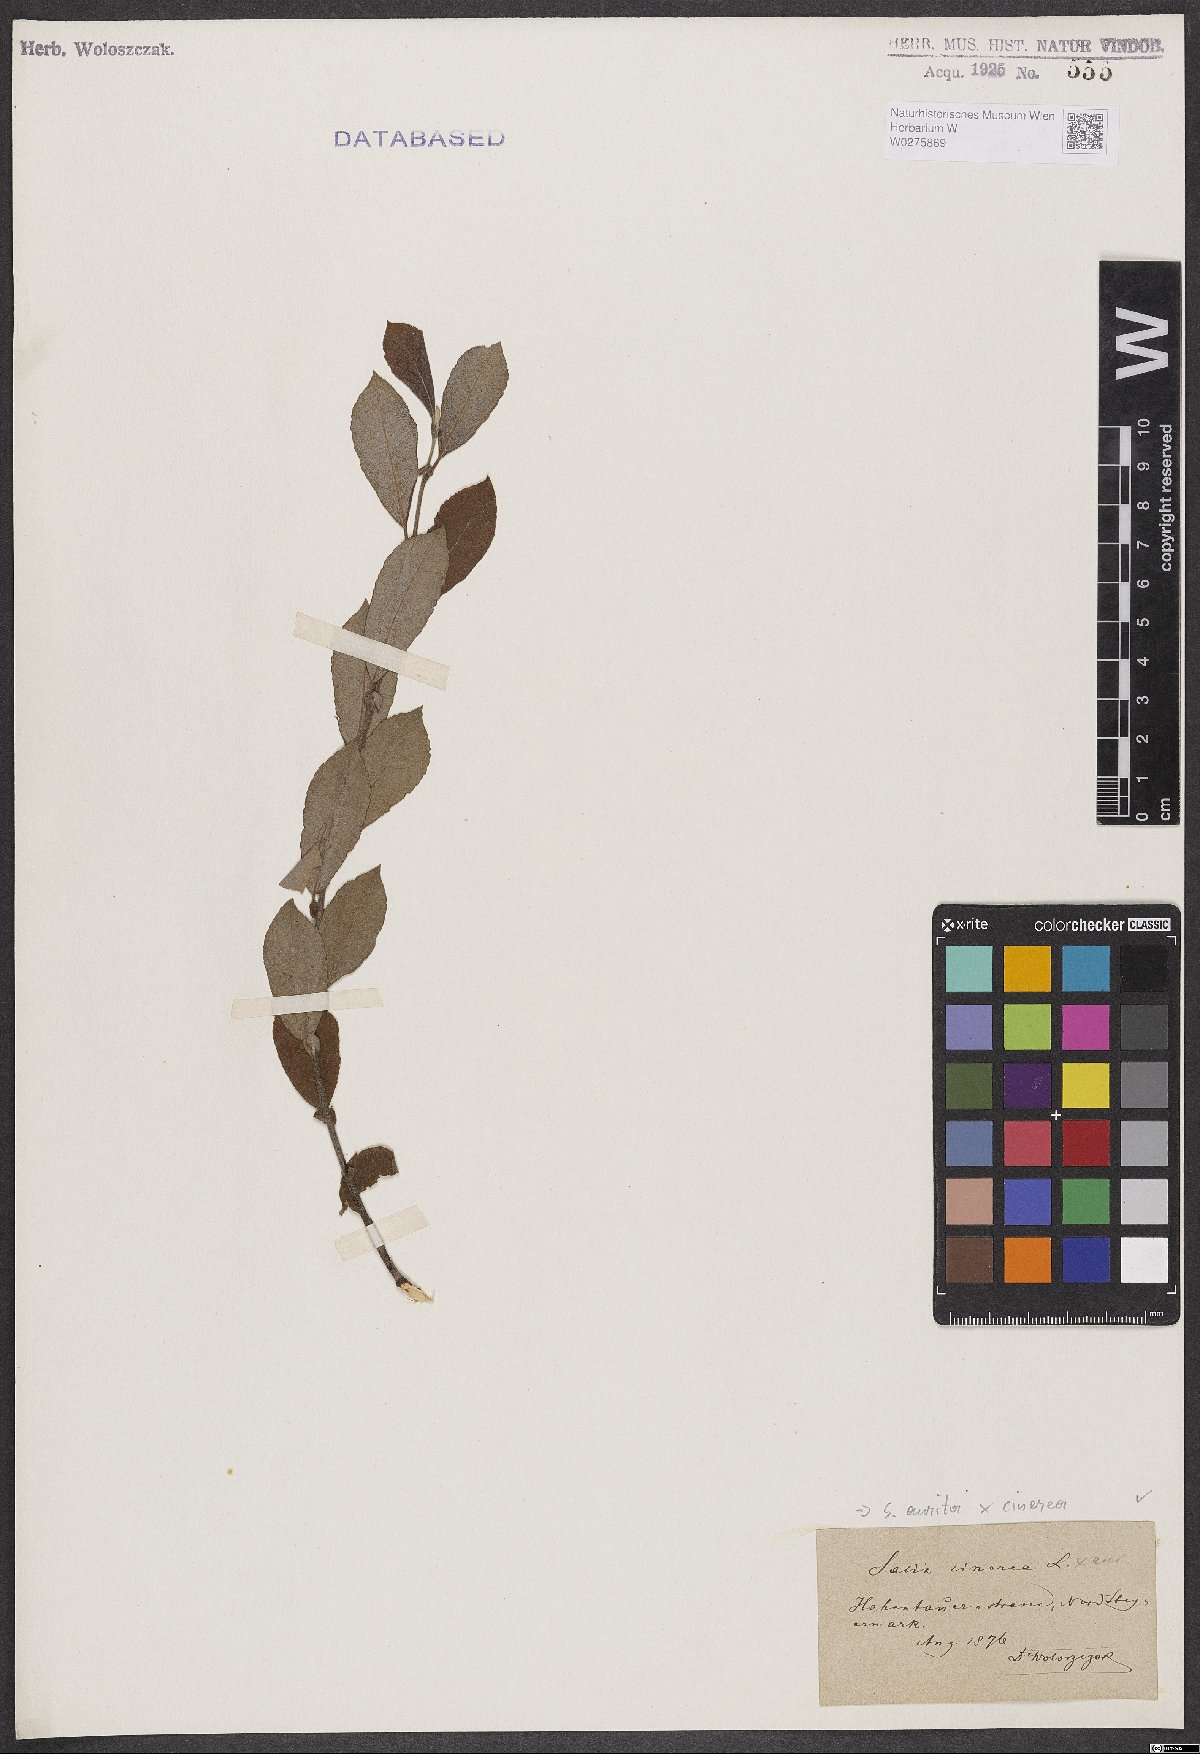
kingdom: Plantae
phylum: Tracheophyta
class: Magnoliopsida
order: Malpighiales
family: Salicaceae
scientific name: Salicaceae
